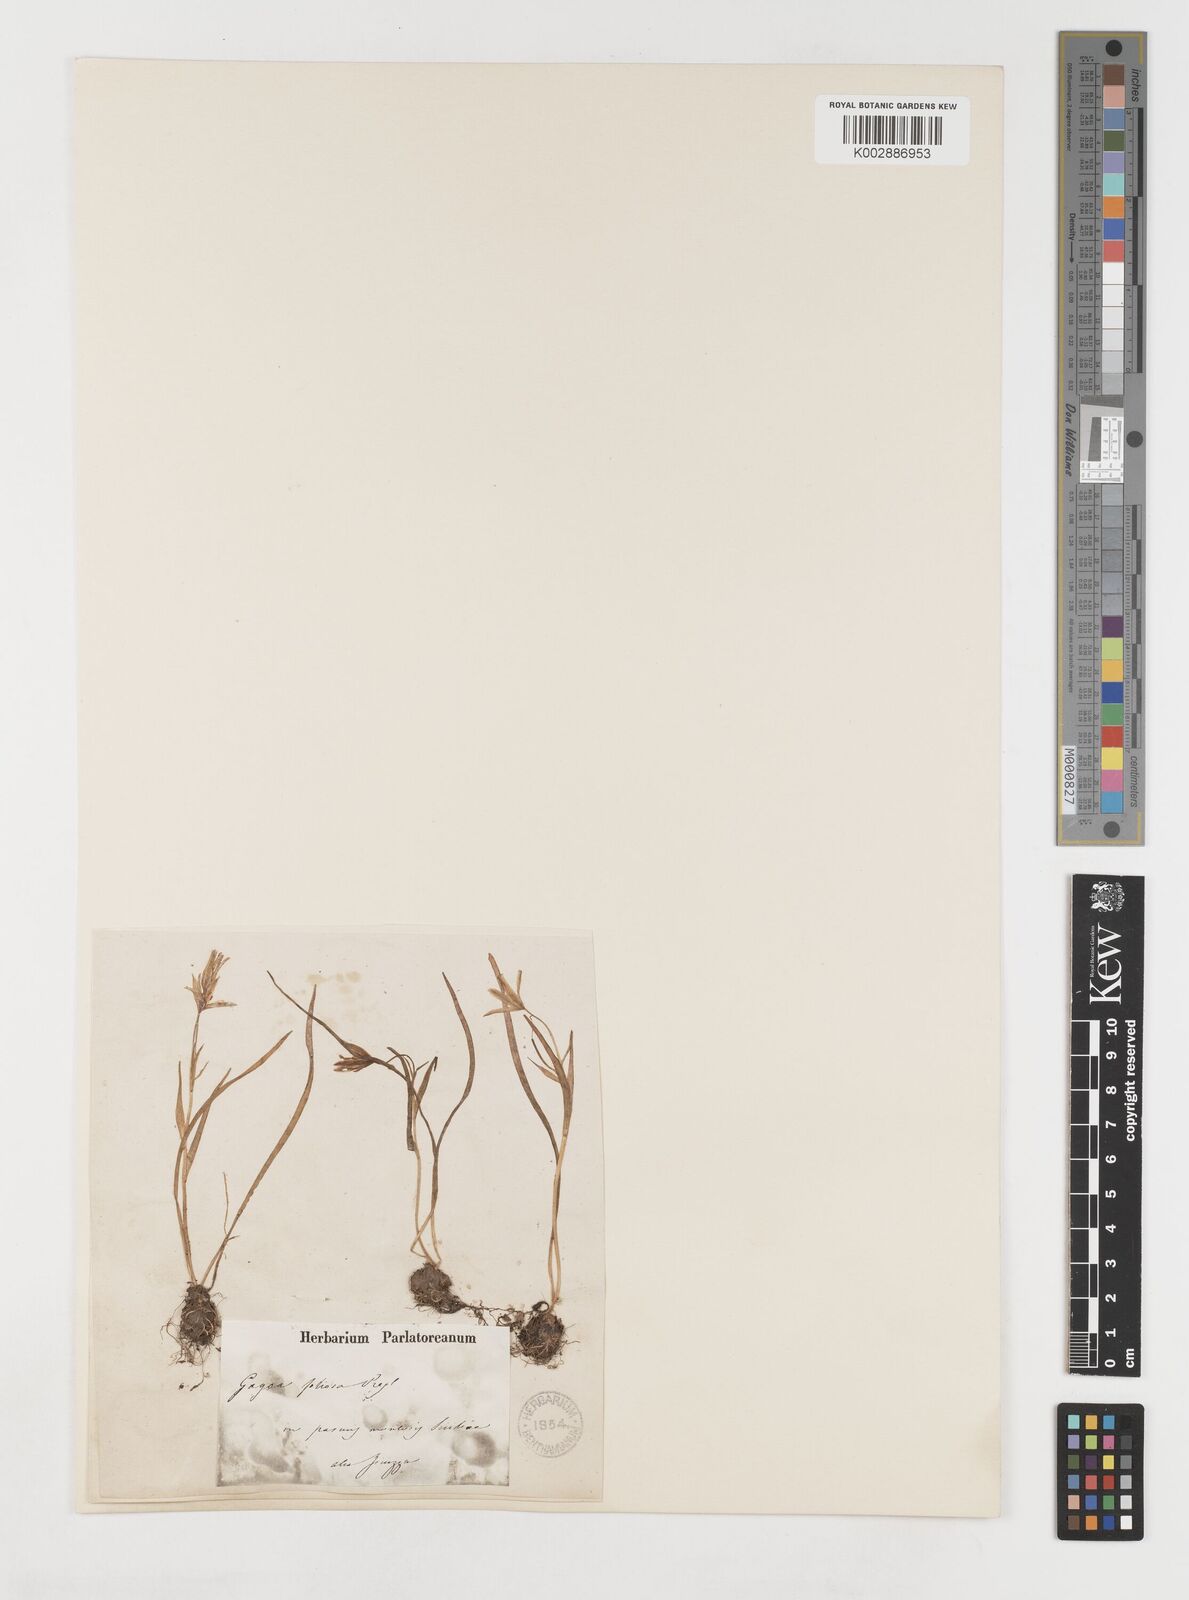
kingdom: Plantae
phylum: Tracheophyta
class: Liliopsida
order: Liliales
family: Liliaceae
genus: Gagea
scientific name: Gagea foliosa
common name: Leafy gagea
